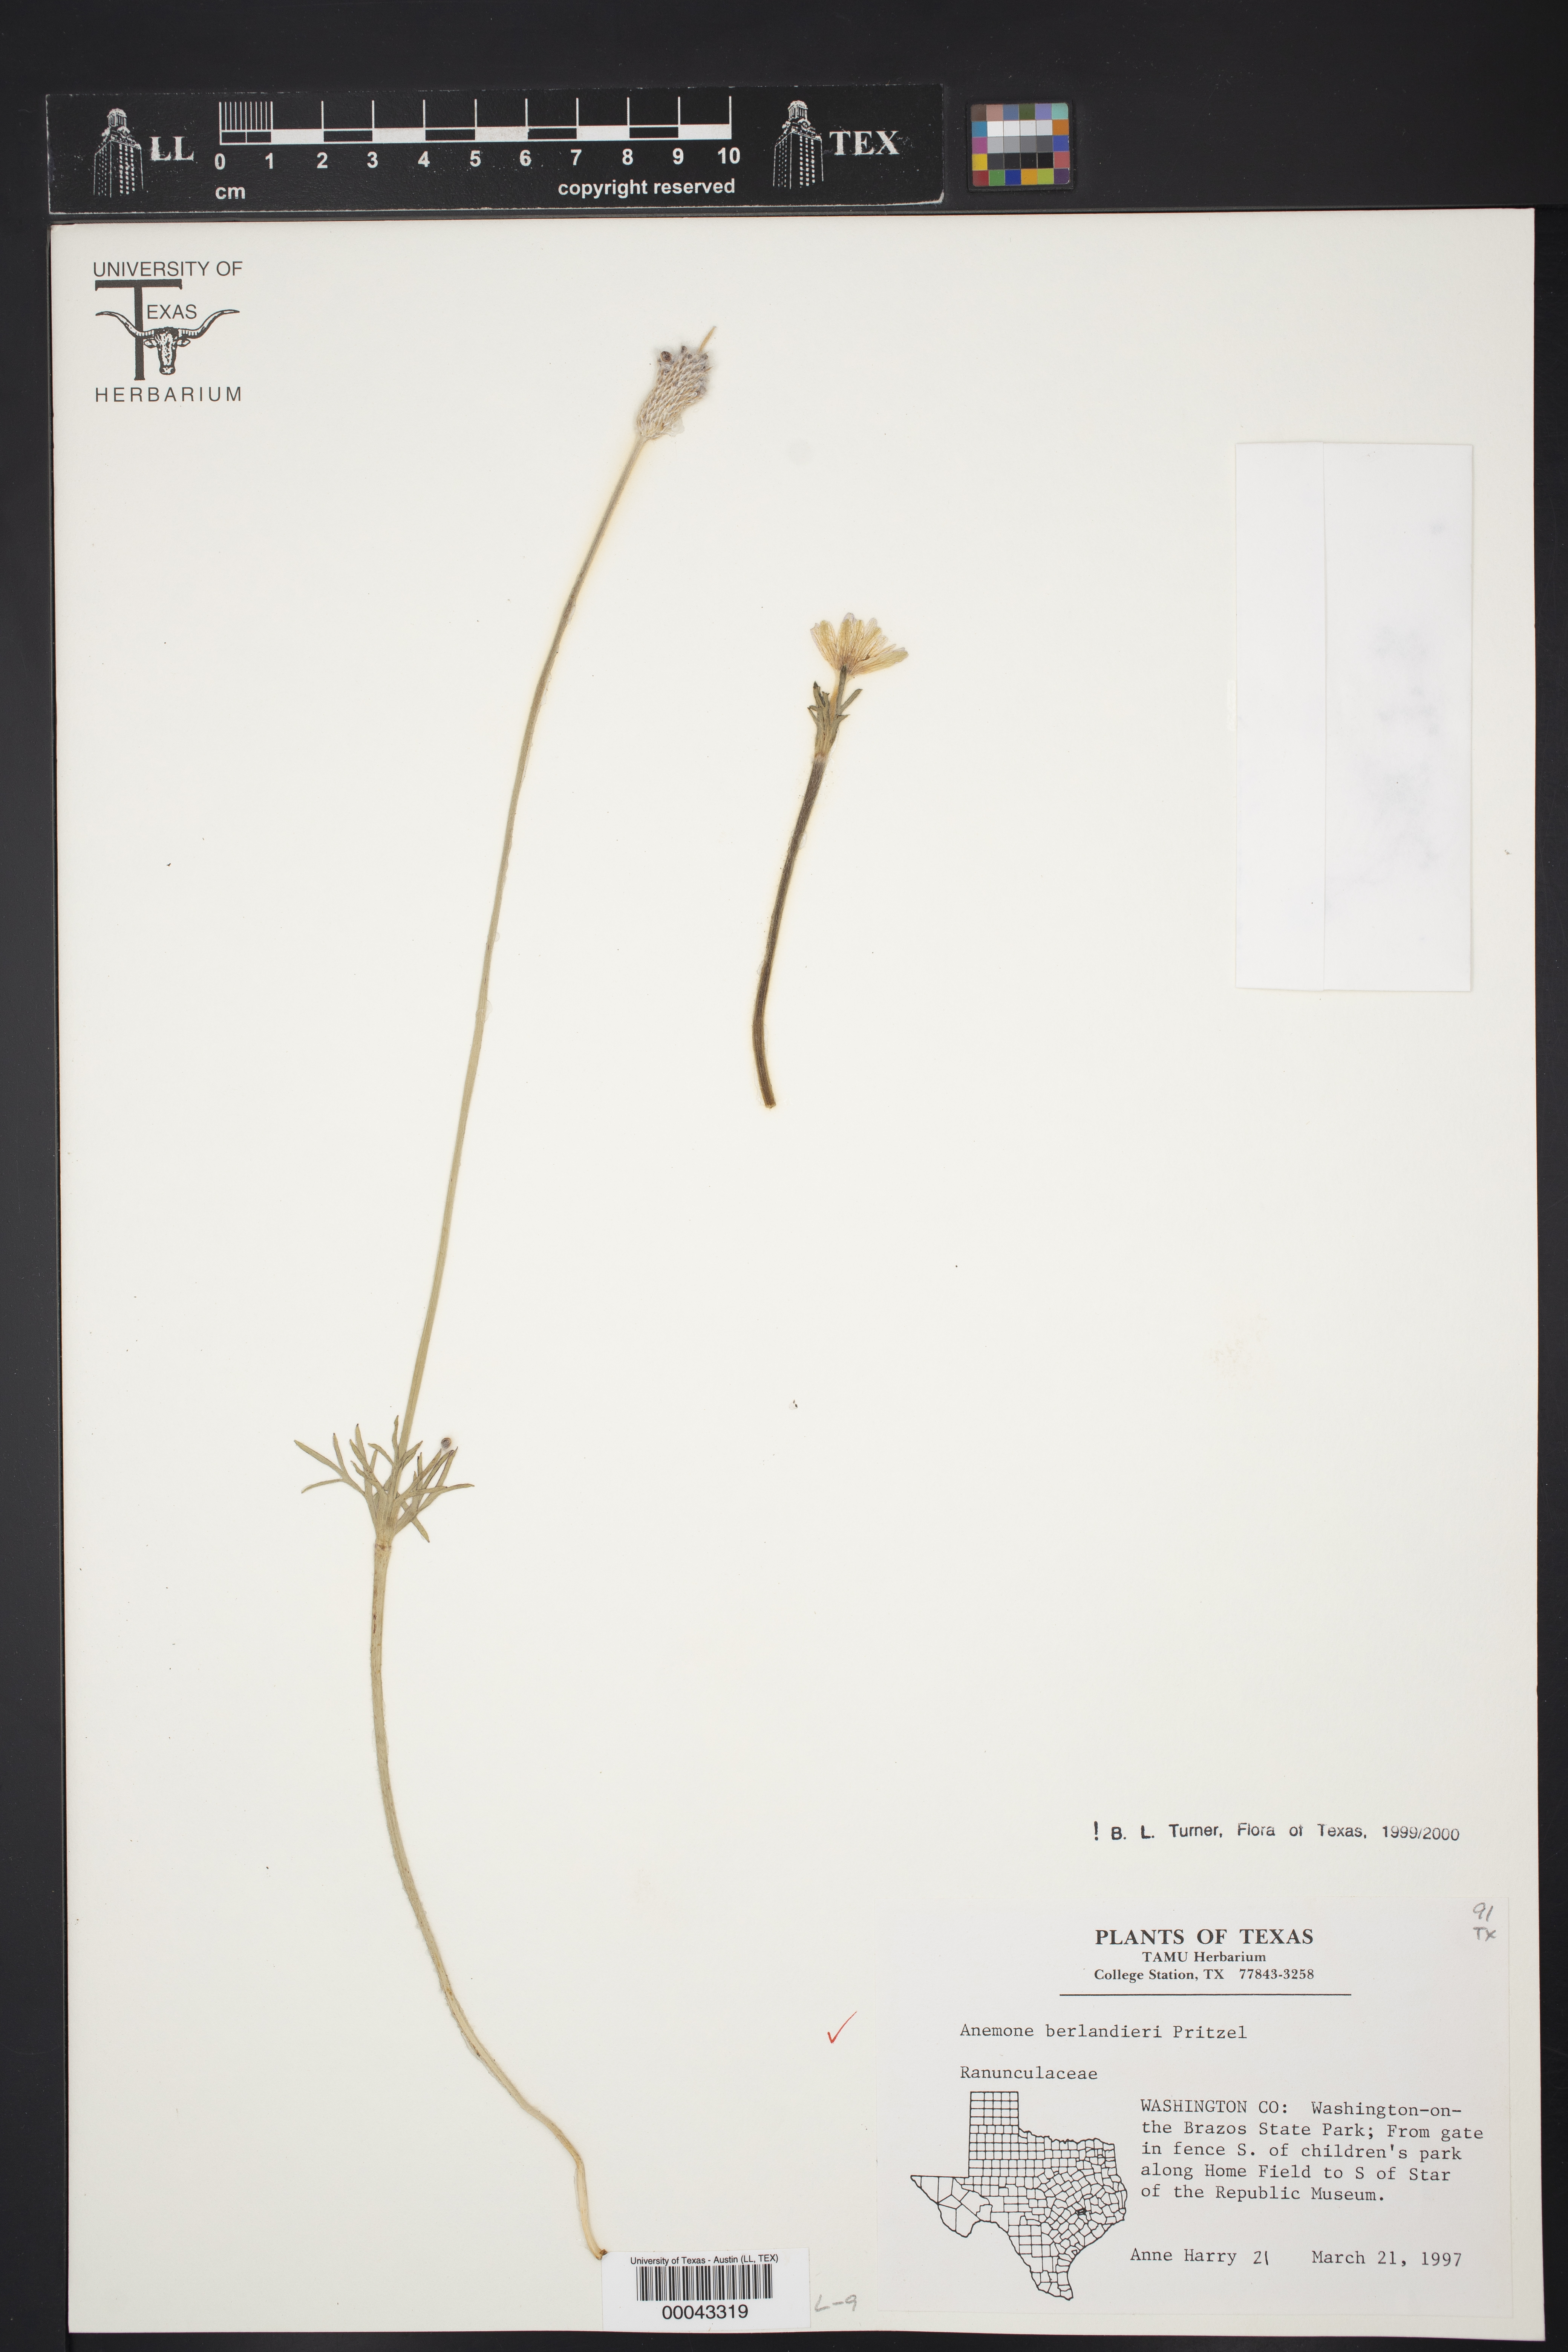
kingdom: Plantae
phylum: Tracheophyta
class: Magnoliopsida
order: Ranunculales
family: Ranunculaceae
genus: Anemone
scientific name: Anemone berlandieri
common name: Ten-petal anemone
